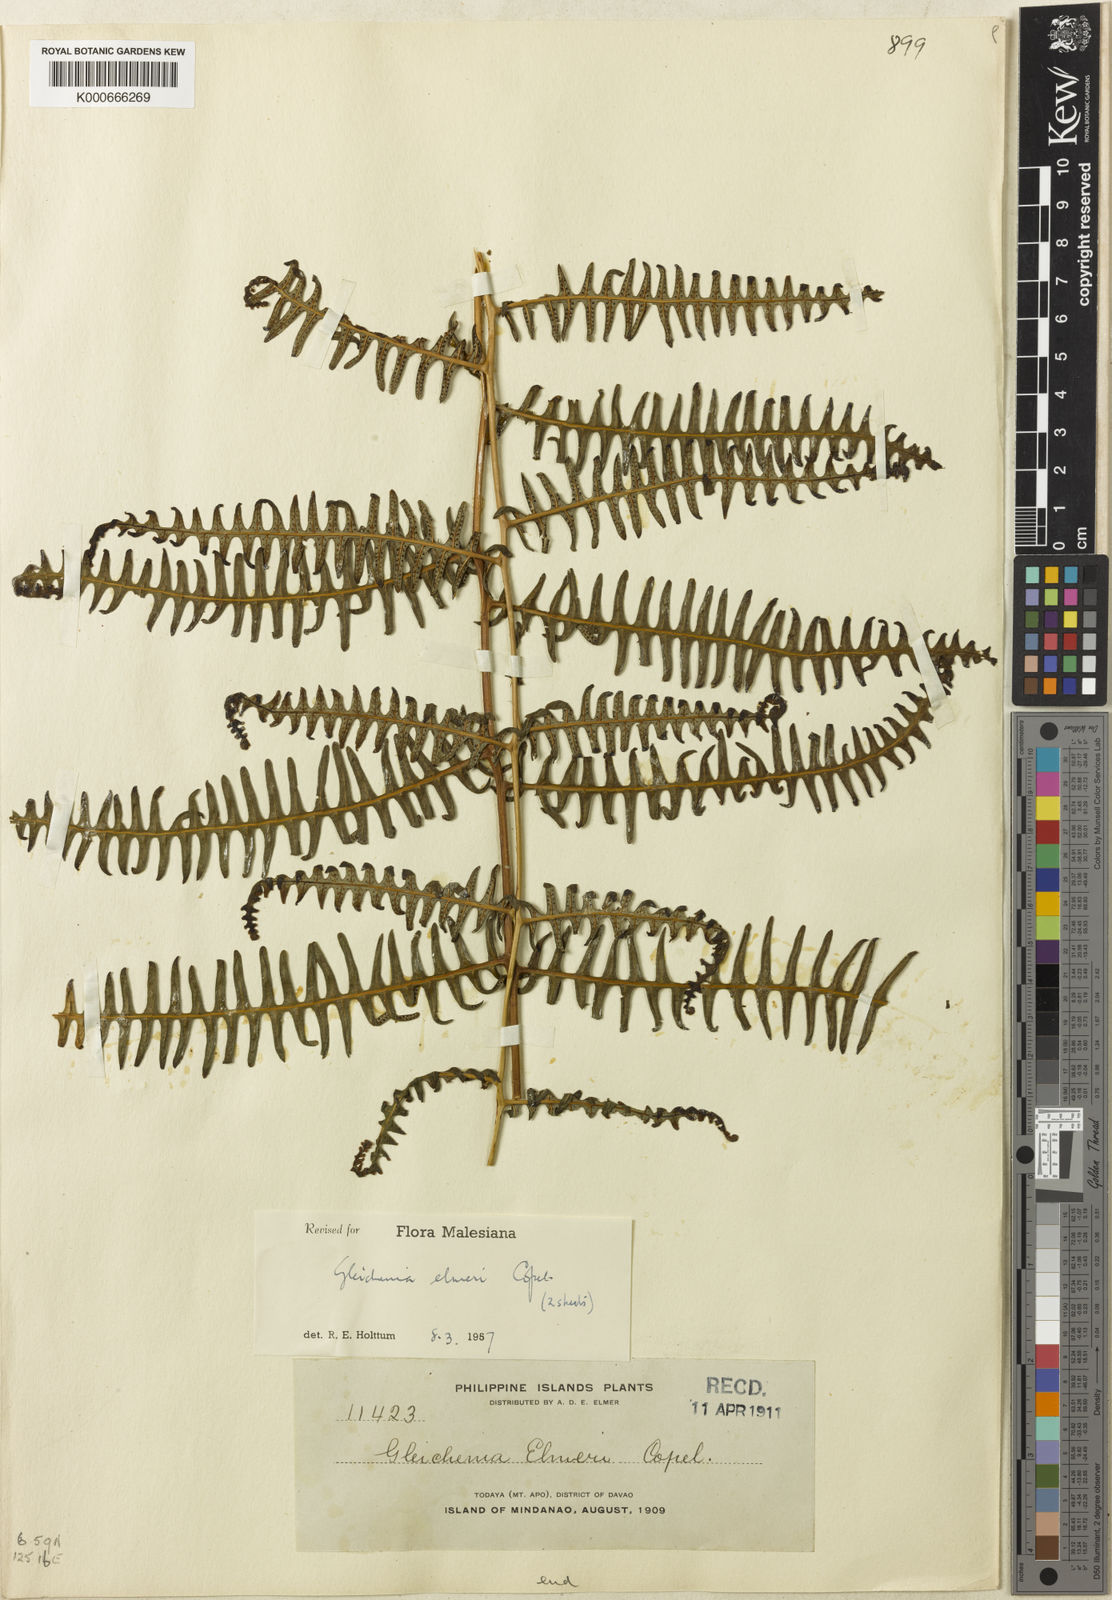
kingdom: Plantae
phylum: Tracheophyta
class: Polypodiopsida
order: Gleicheniales
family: Gleicheniaceae
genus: Diplopterygium
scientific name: Diplopterygium elmeri
